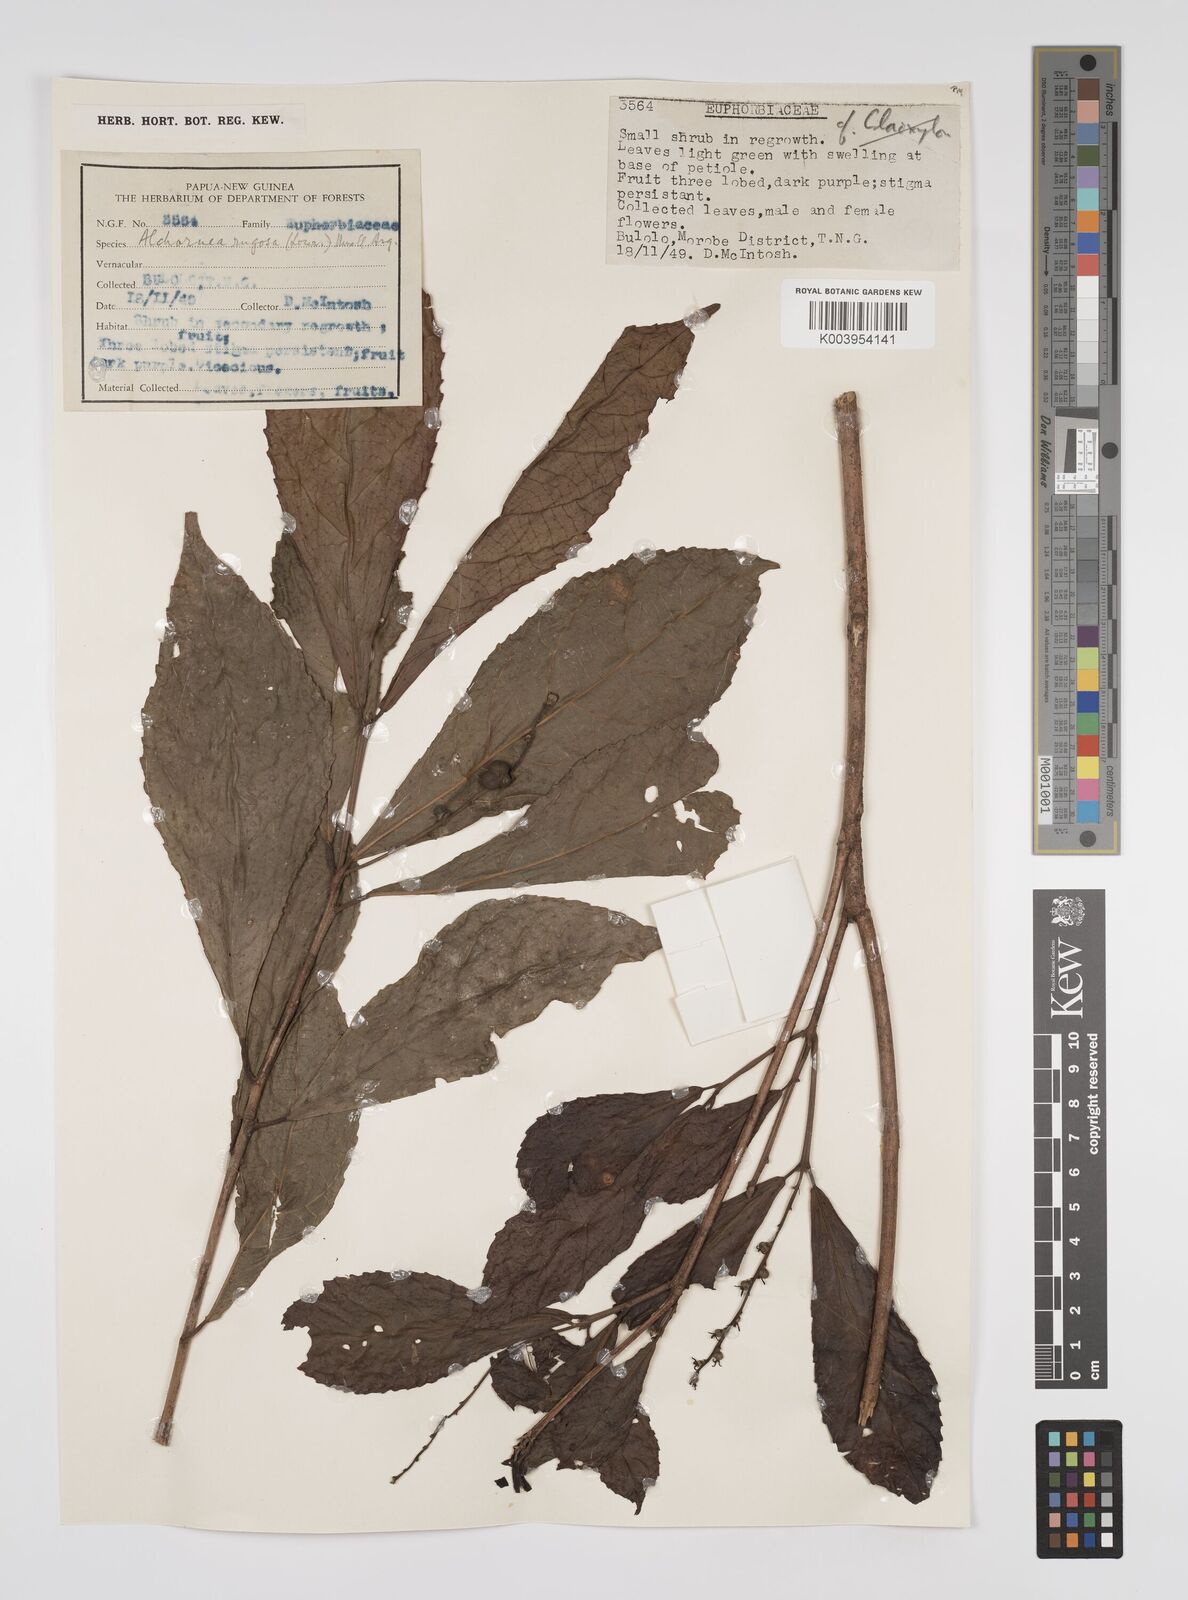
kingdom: Plantae
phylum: Tracheophyta
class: Magnoliopsida
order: Malpighiales
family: Euphorbiaceae
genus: Alchornea
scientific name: Alchornea rugosa
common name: Alchorntree
